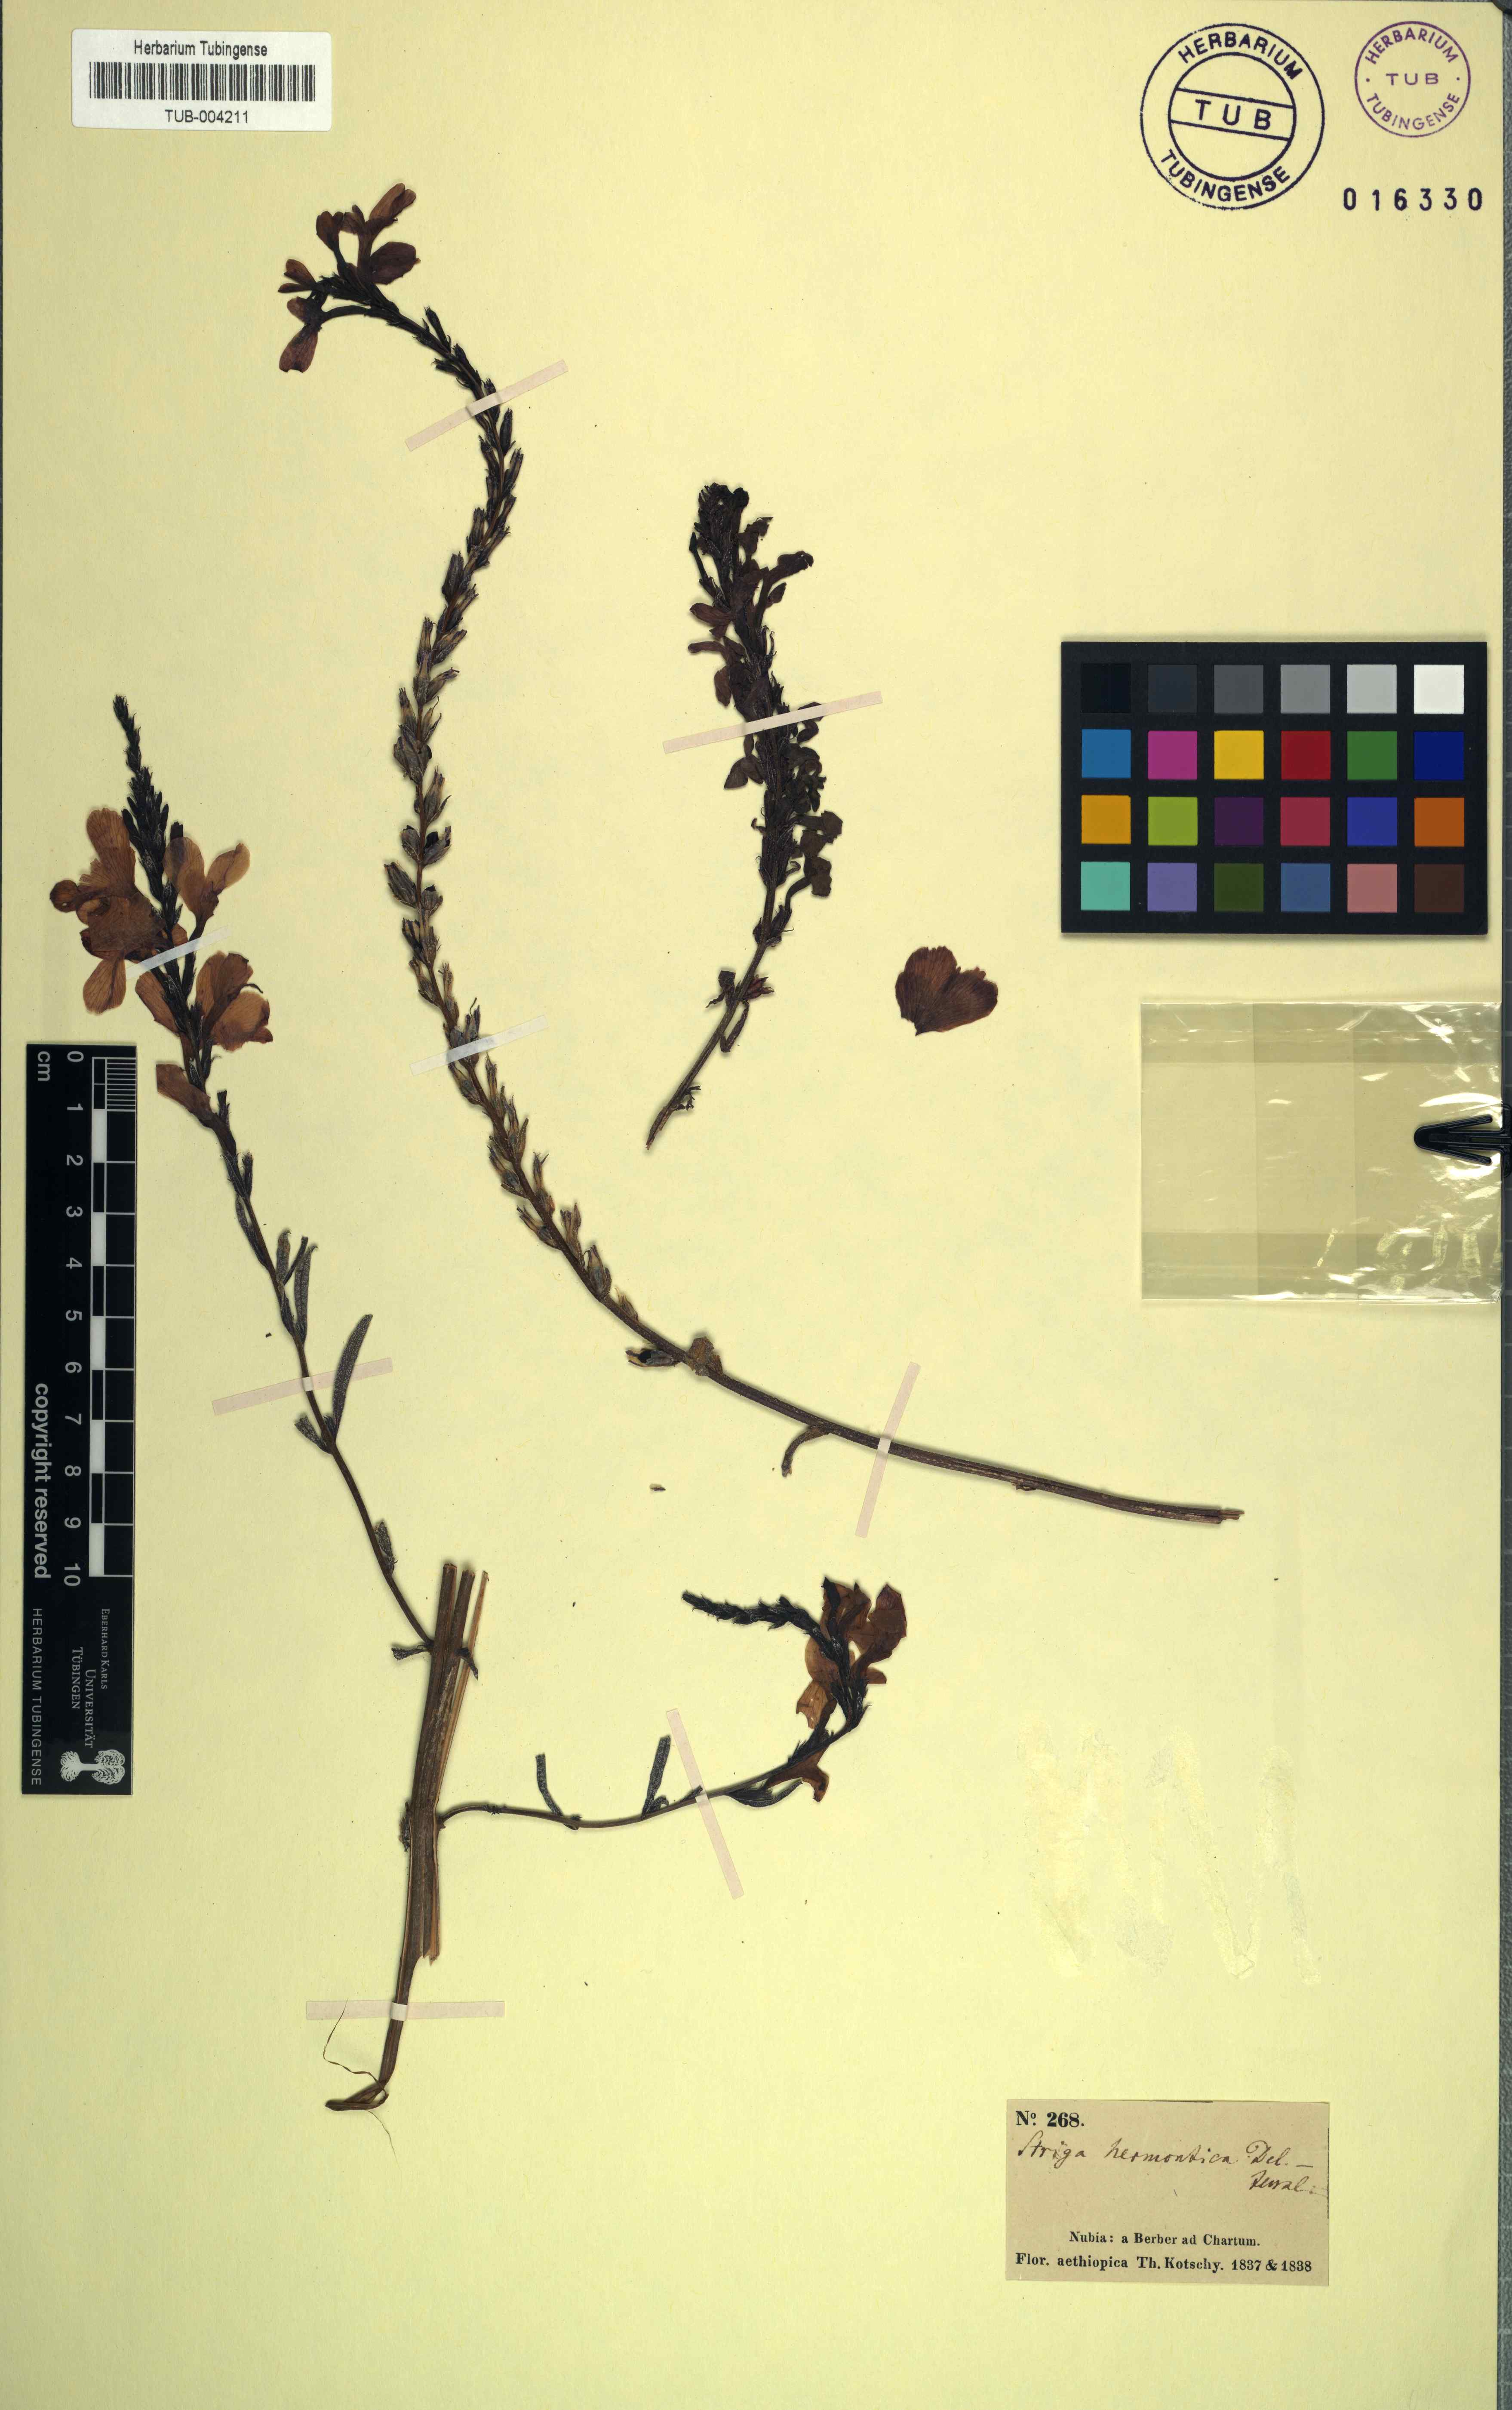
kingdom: Plantae
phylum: Tracheophyta
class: Magnoliopsida
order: Lamiales
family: Orobanchaceae
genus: Striga
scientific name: Striga hermonthica
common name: Purple witchweed
